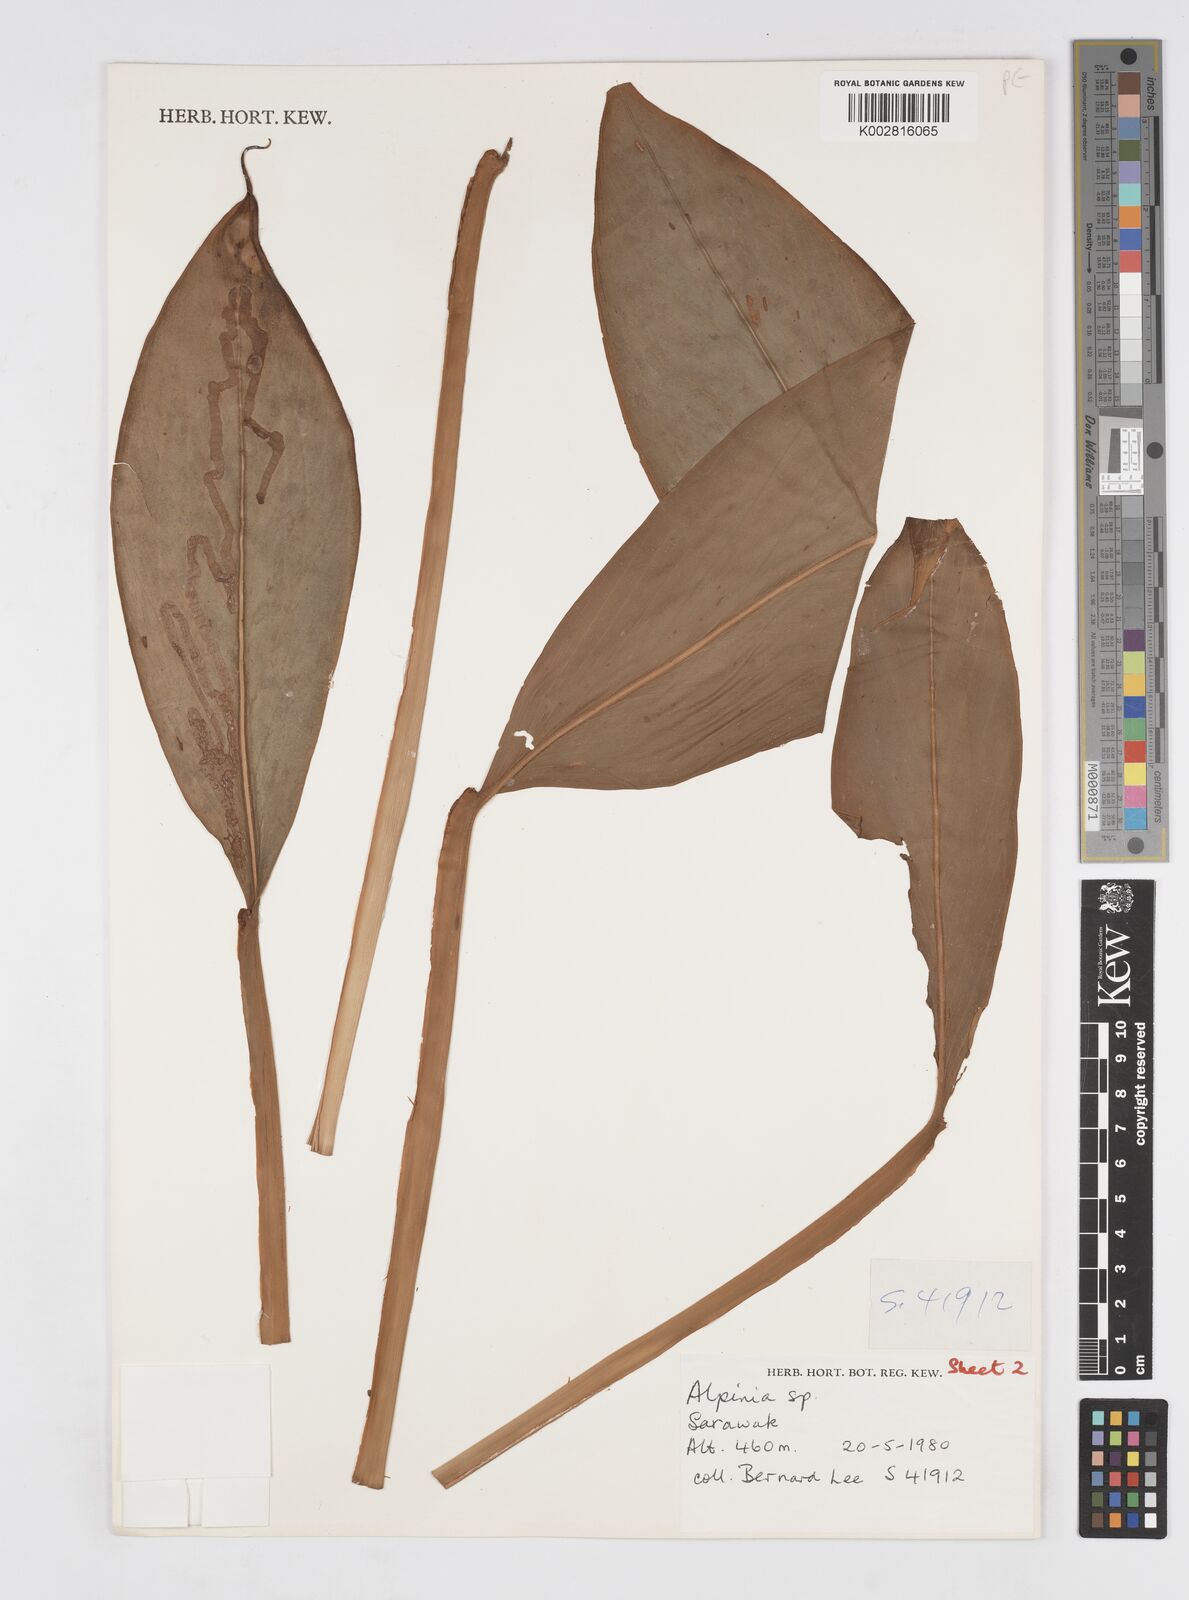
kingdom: Plantae
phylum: Tracheophyta
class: Liliopsida
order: Zingiberales
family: Zingiberaceae
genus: Alpinia
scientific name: Alpinia
